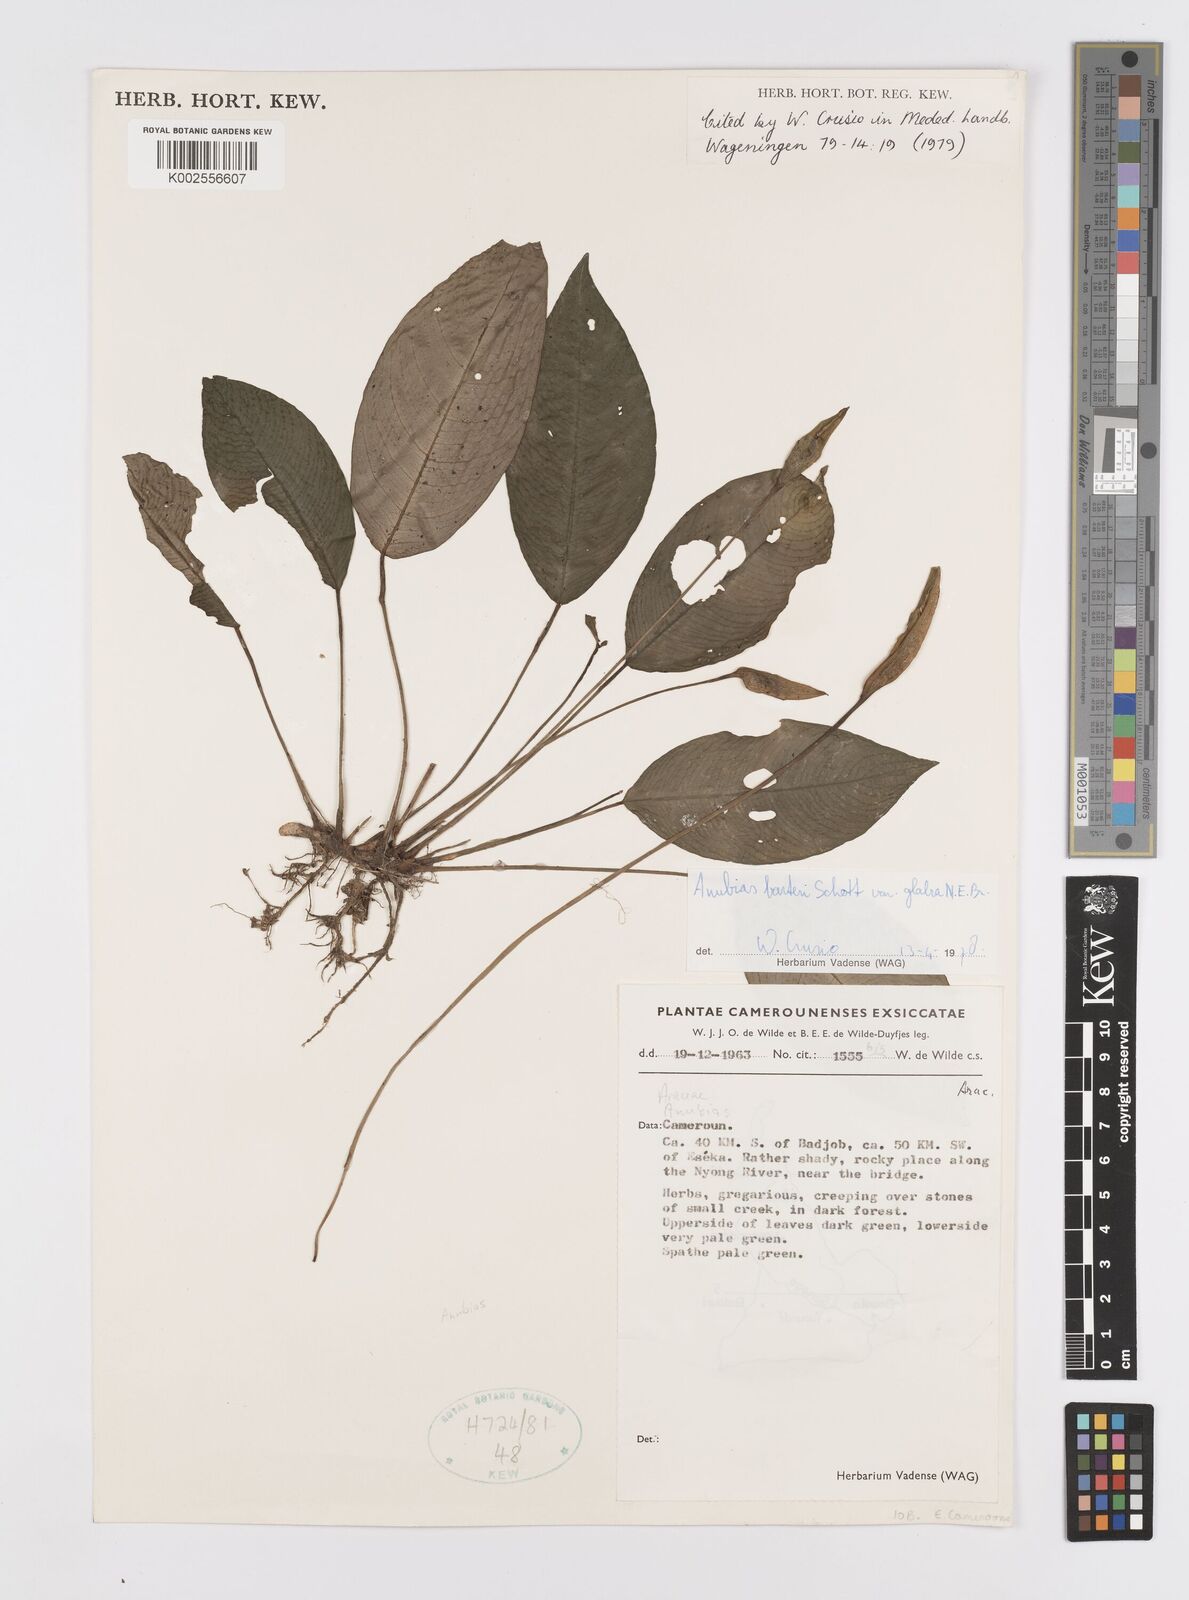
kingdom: Plantae
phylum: Tracheophyta
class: Liliopsida
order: Alismatales
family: Araceae
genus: Anubias
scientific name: Anubias barteri
